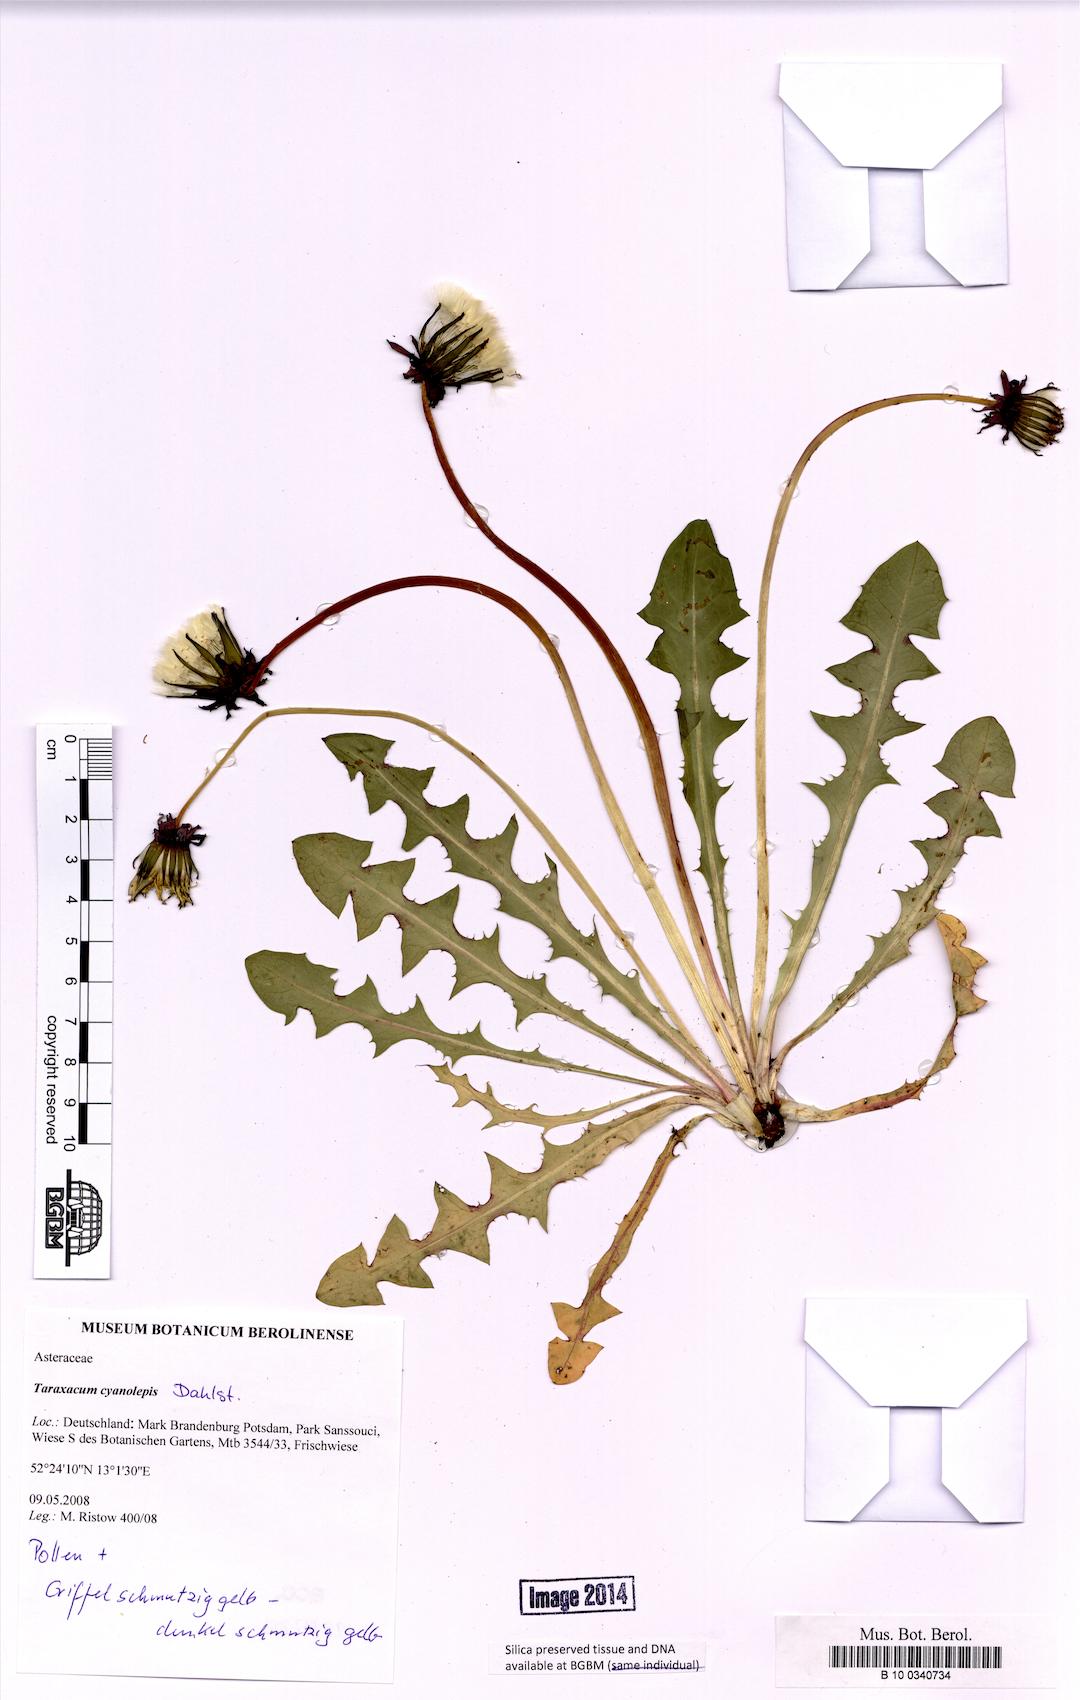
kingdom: Plantae
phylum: Tracheophyta
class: Magnoliopsida
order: Asterales
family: Asteraceae
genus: Taraxacum
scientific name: Taraxacum cyanolepis
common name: Bluish-bracted dandelion
